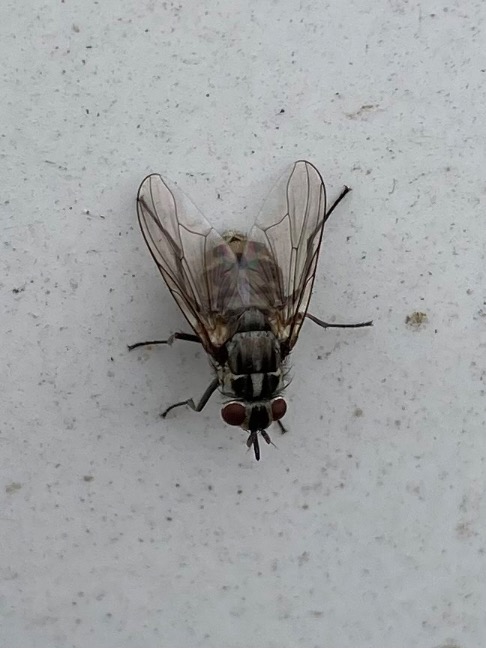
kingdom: Animalia
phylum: Arthropoda
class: Insecta
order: Diptera
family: Muscidae
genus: Stomoxys
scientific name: Stomoxys calcitrans
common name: Stikflue
